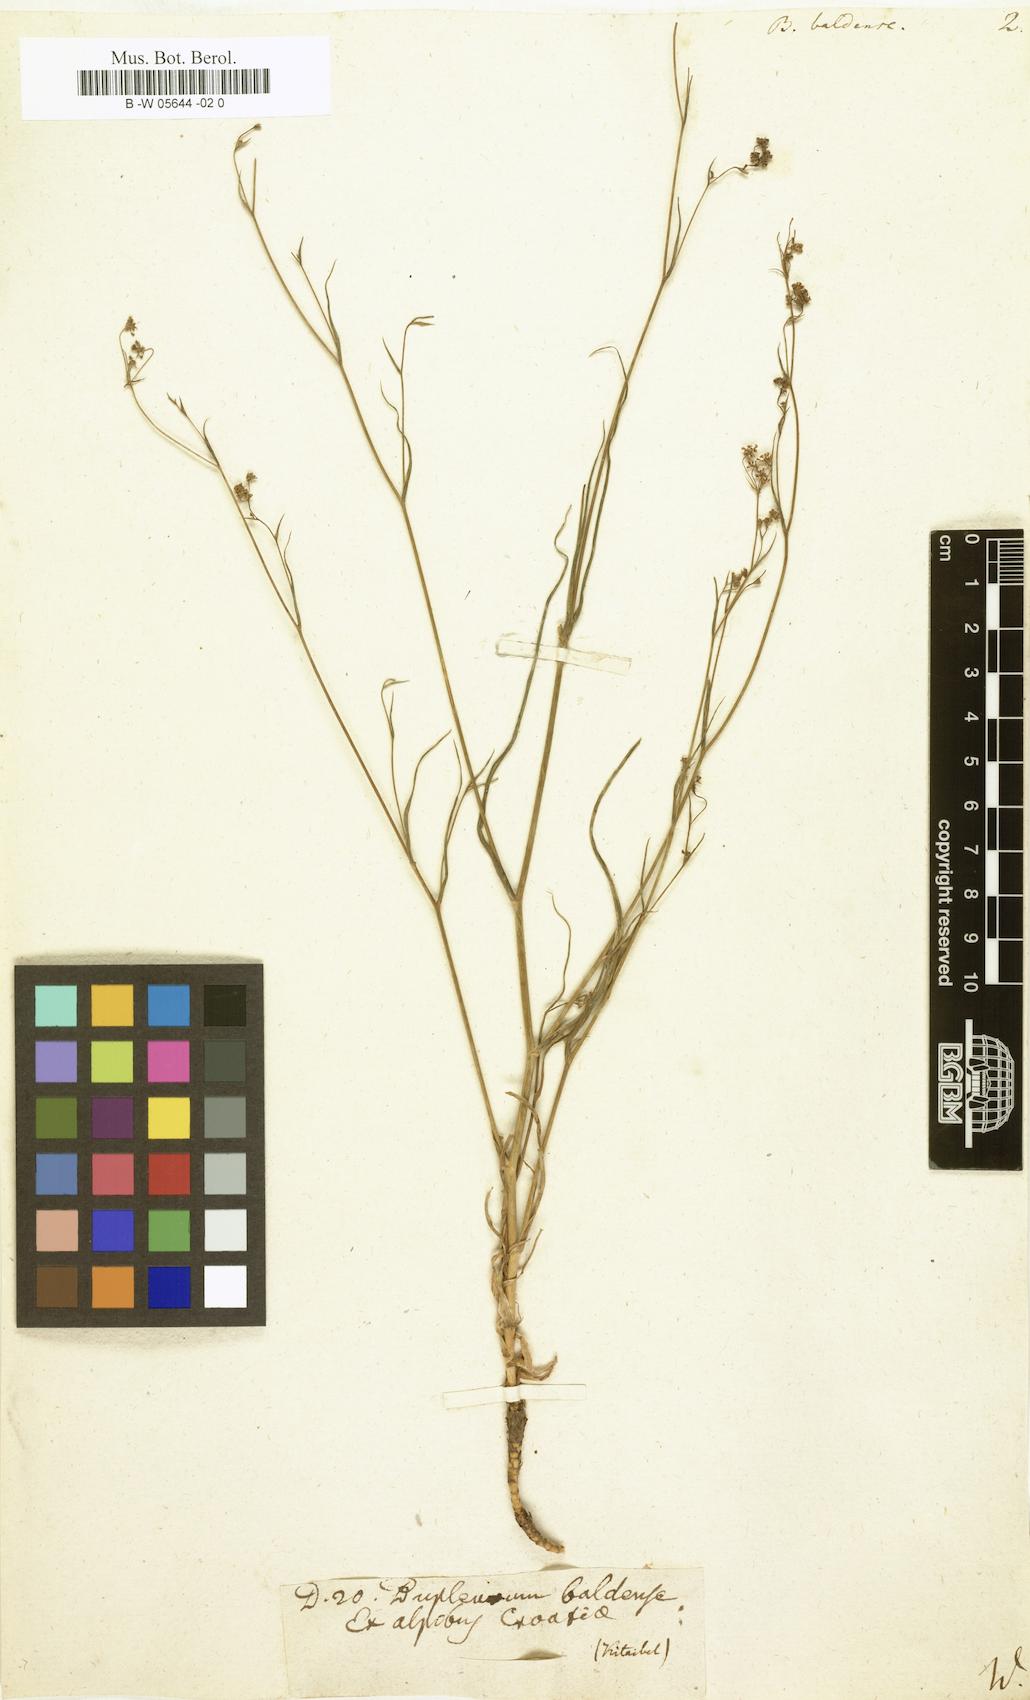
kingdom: Plantae
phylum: Tracheophyta
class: Magnoliopsida
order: Apiales
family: Apiaceae
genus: Bupleurum
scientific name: Bupleurum baldense
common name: Small hare's-ear
